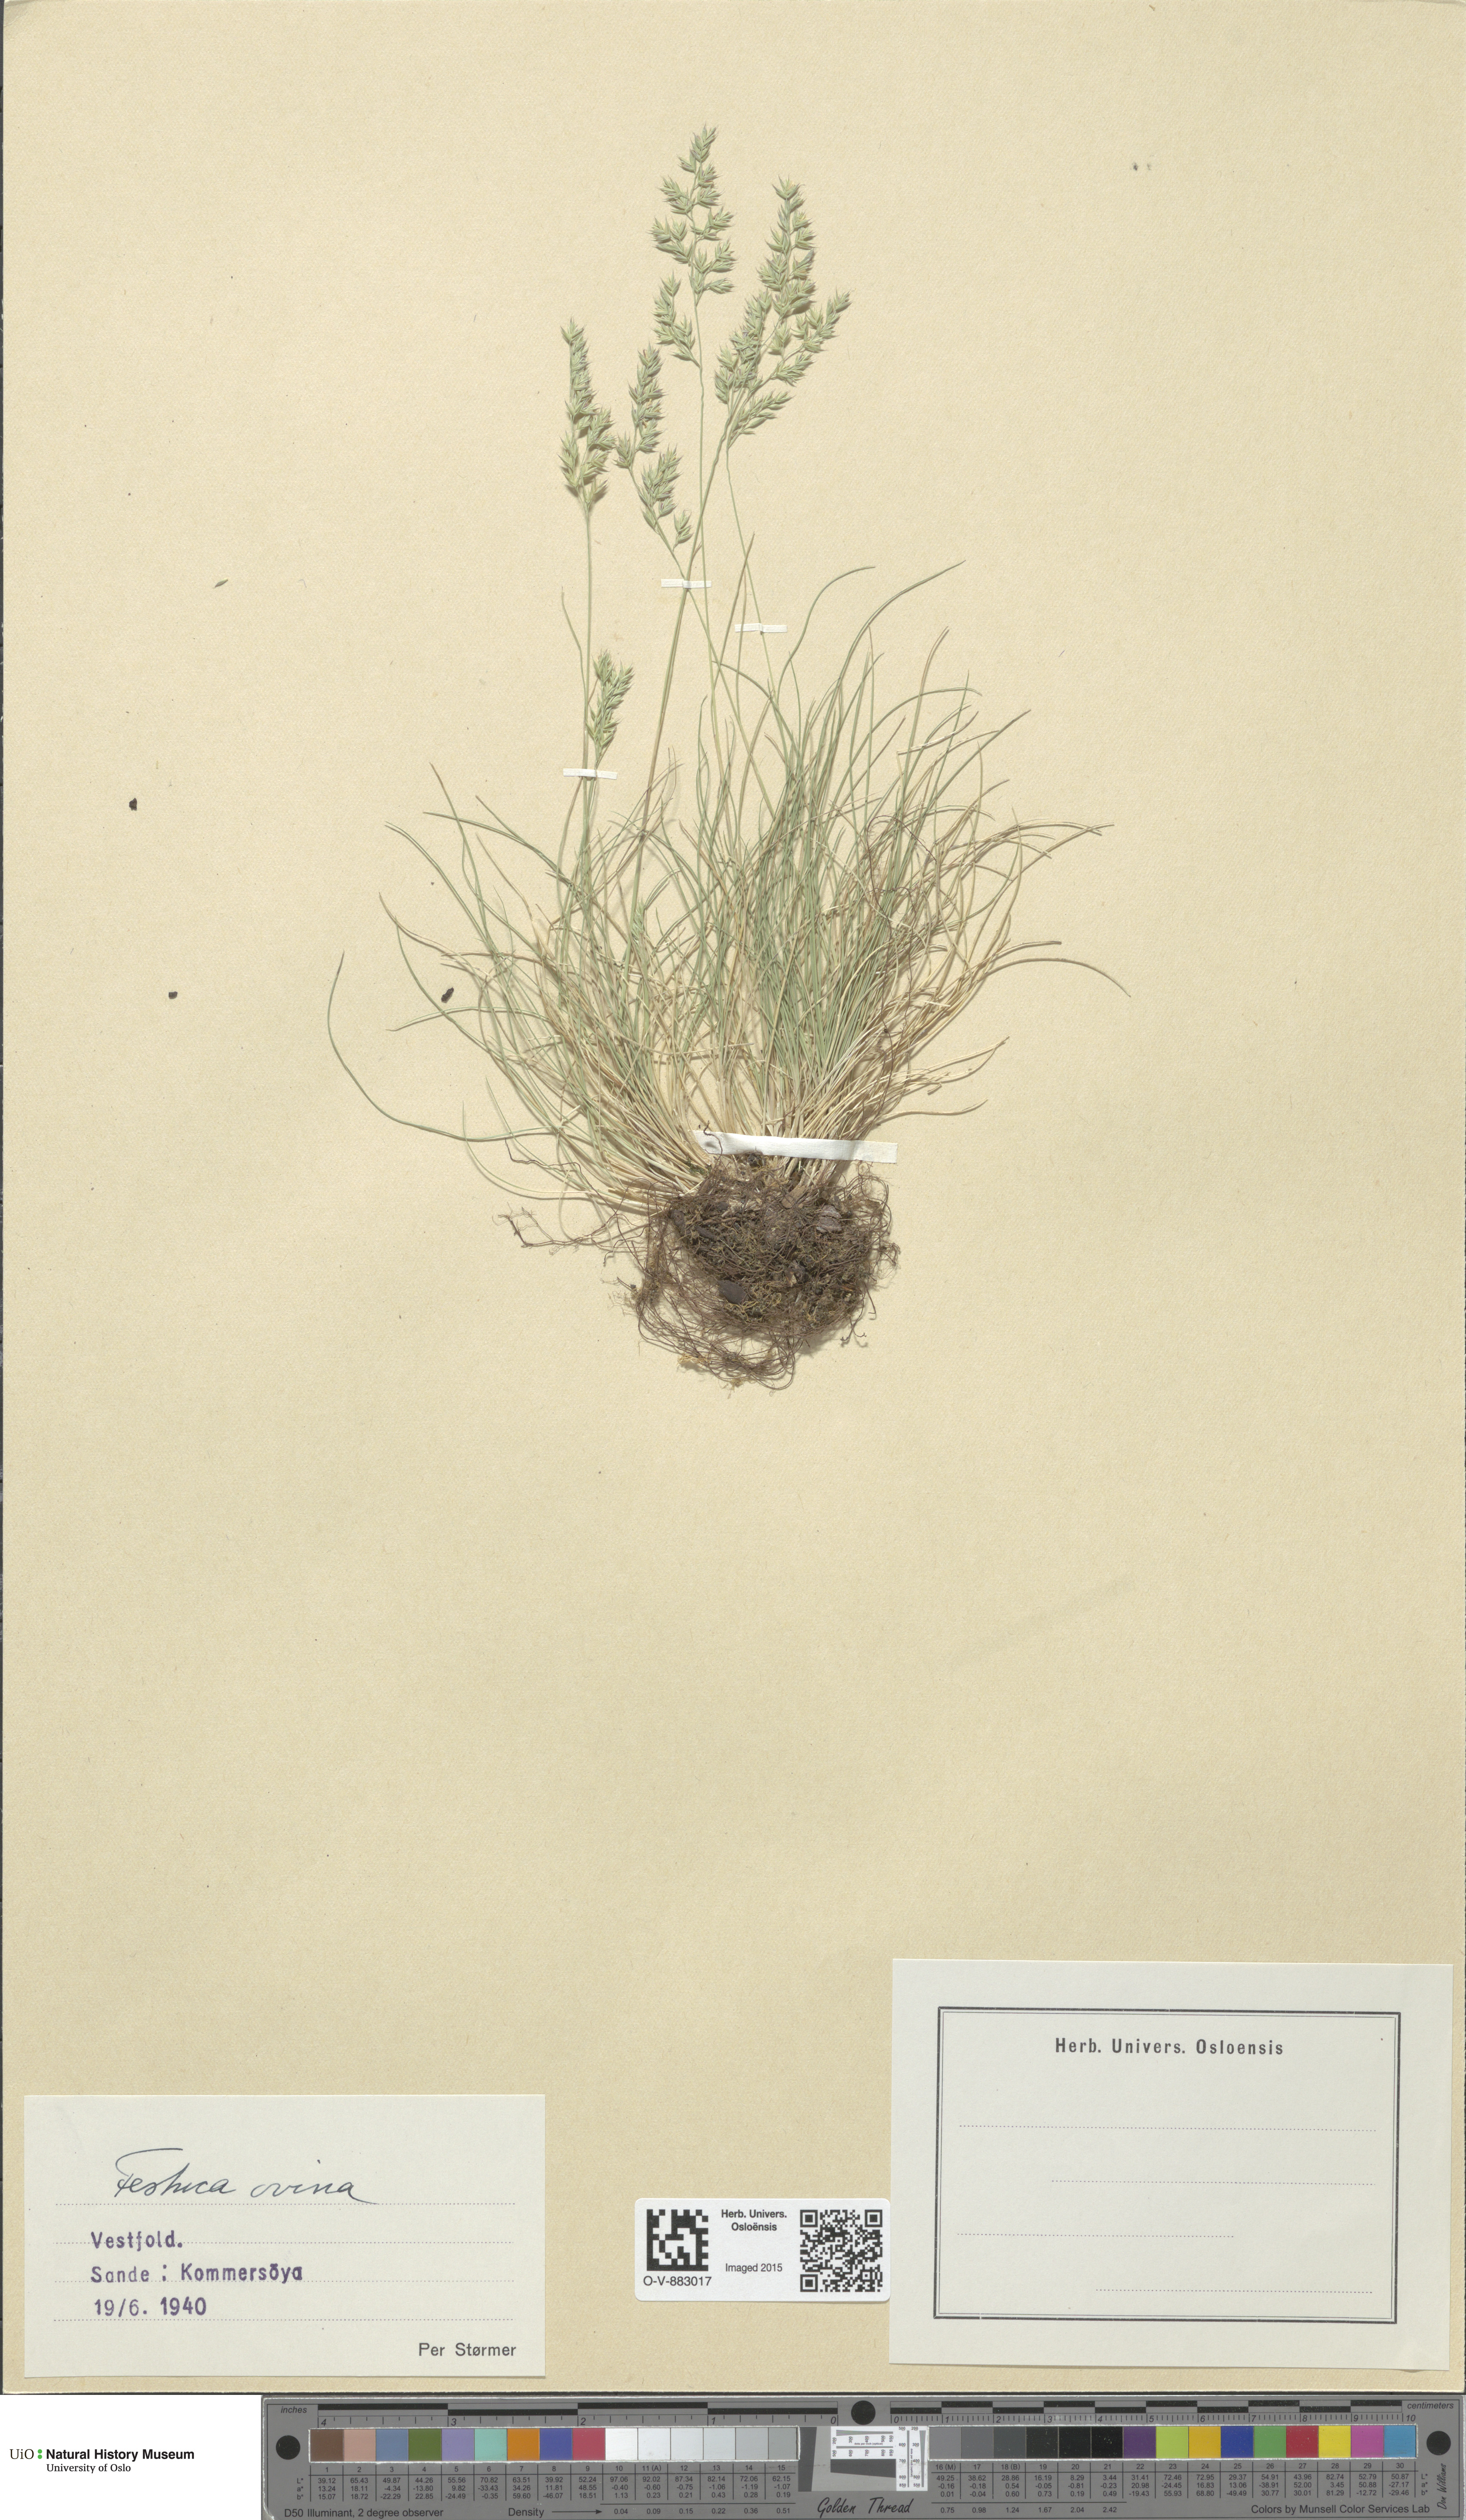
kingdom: Plantae
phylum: Tracheophyta
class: Liliopsida
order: Poales
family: Poaceae
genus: Festuca
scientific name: Festuca ovina
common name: Sheep fescue
